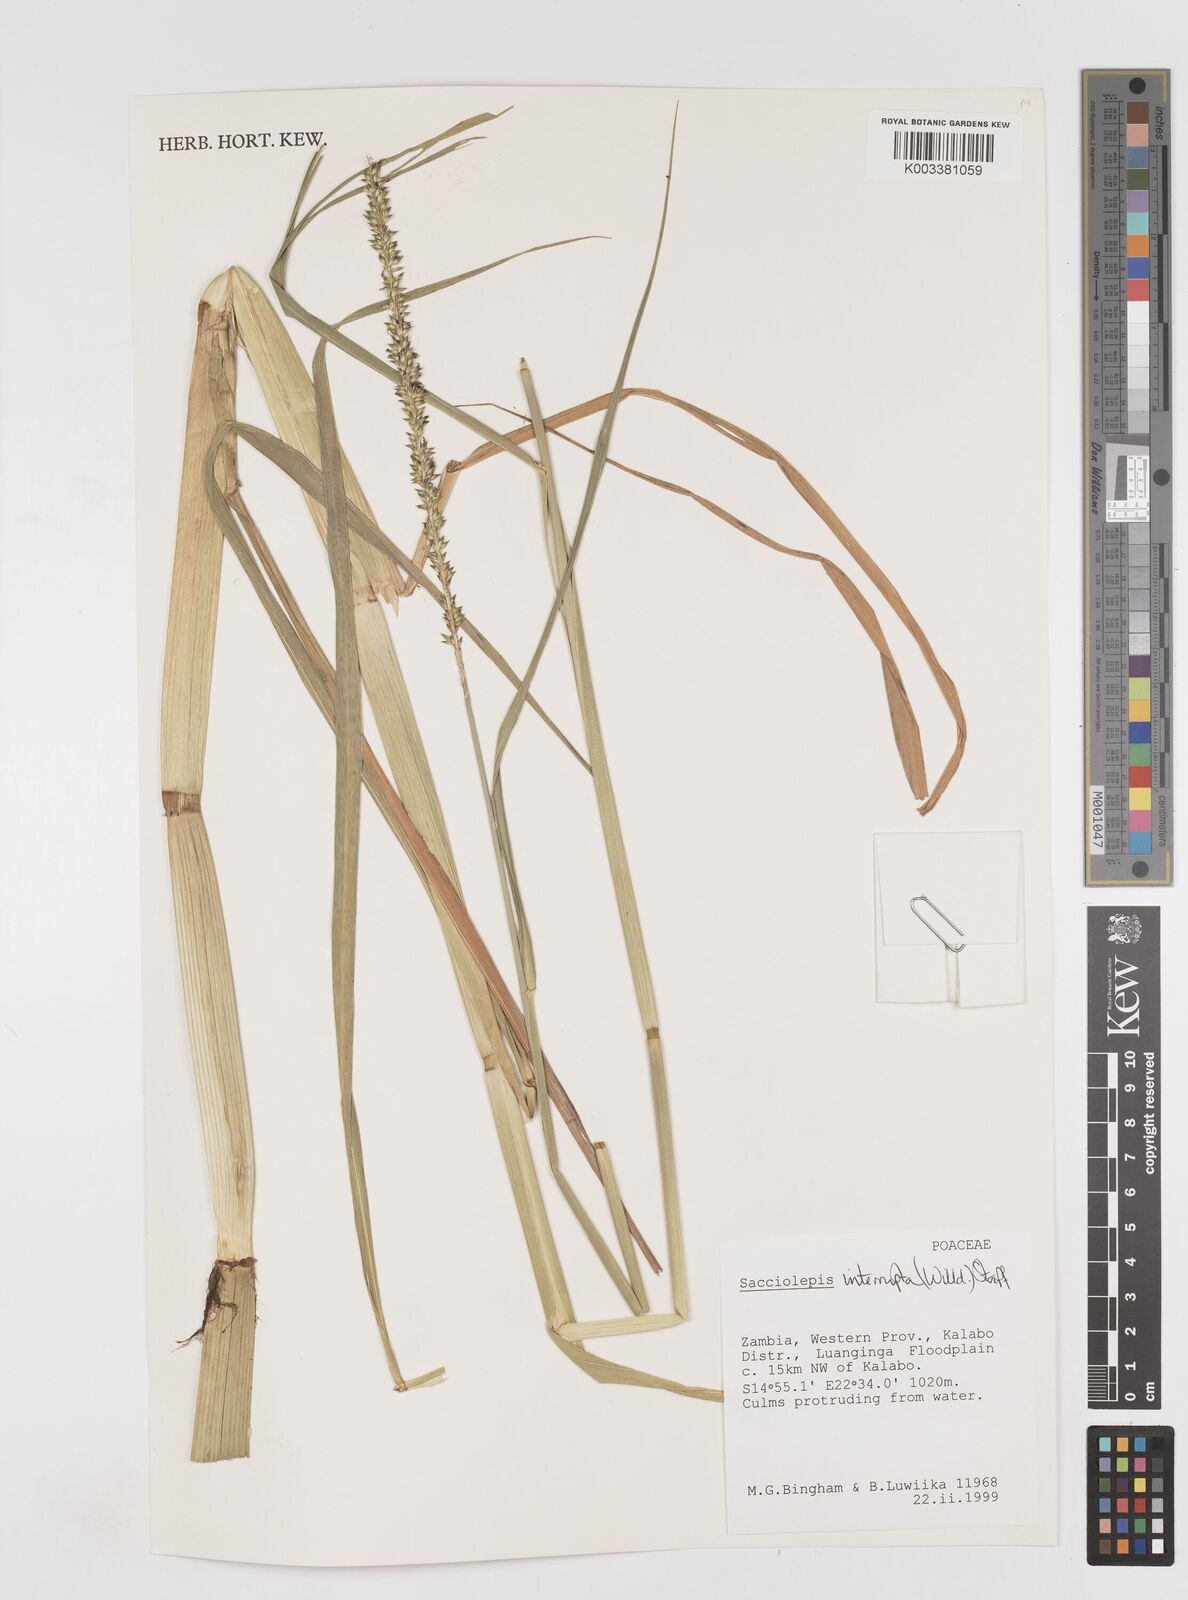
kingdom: Plantae
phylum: Tracheophyta
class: Liliopsida
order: Poales
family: Poaceae
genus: Sacciolepis
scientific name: Sacciolepis interrupta
